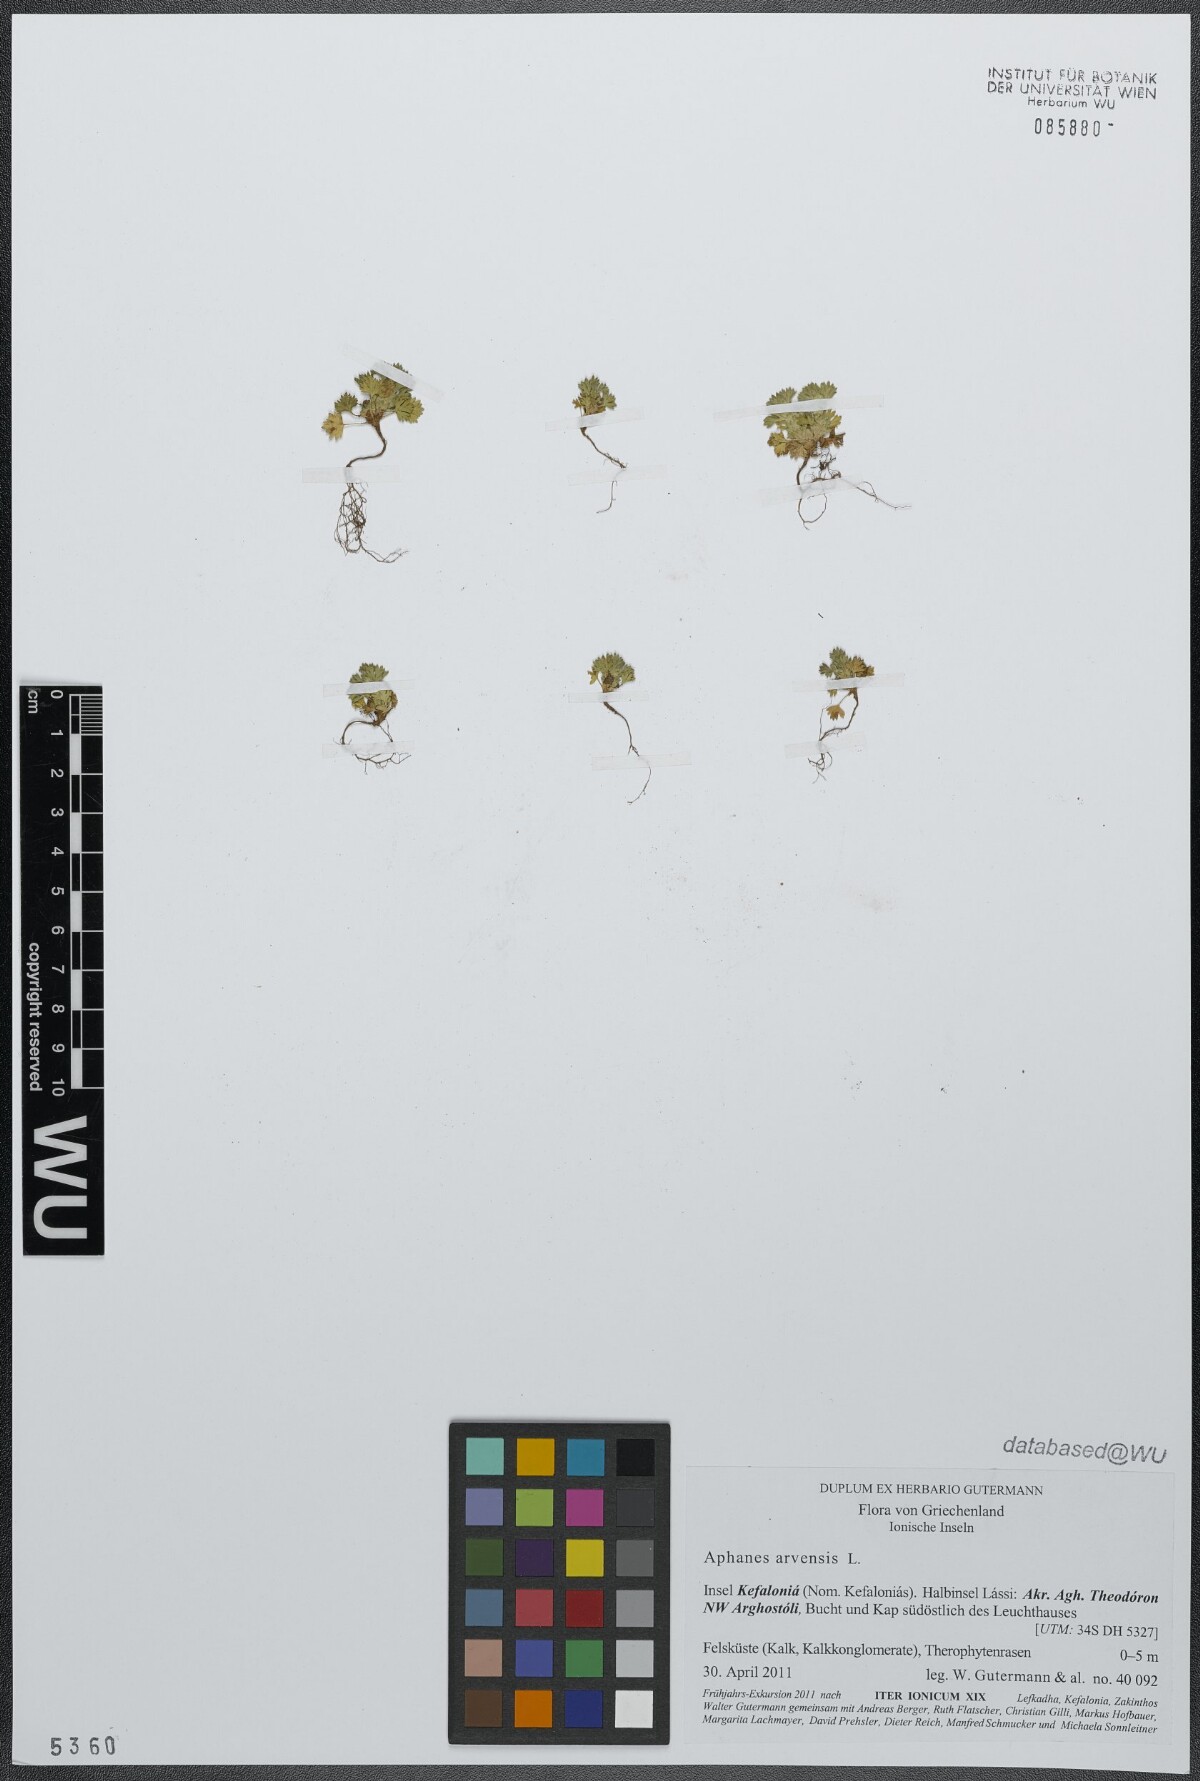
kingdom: Plantae
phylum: Tracheophyta
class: Magnoliopsida
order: Rosales
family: Rosaceae
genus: Aphanes
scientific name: Aphanes arvensis
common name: Parsley-piert
